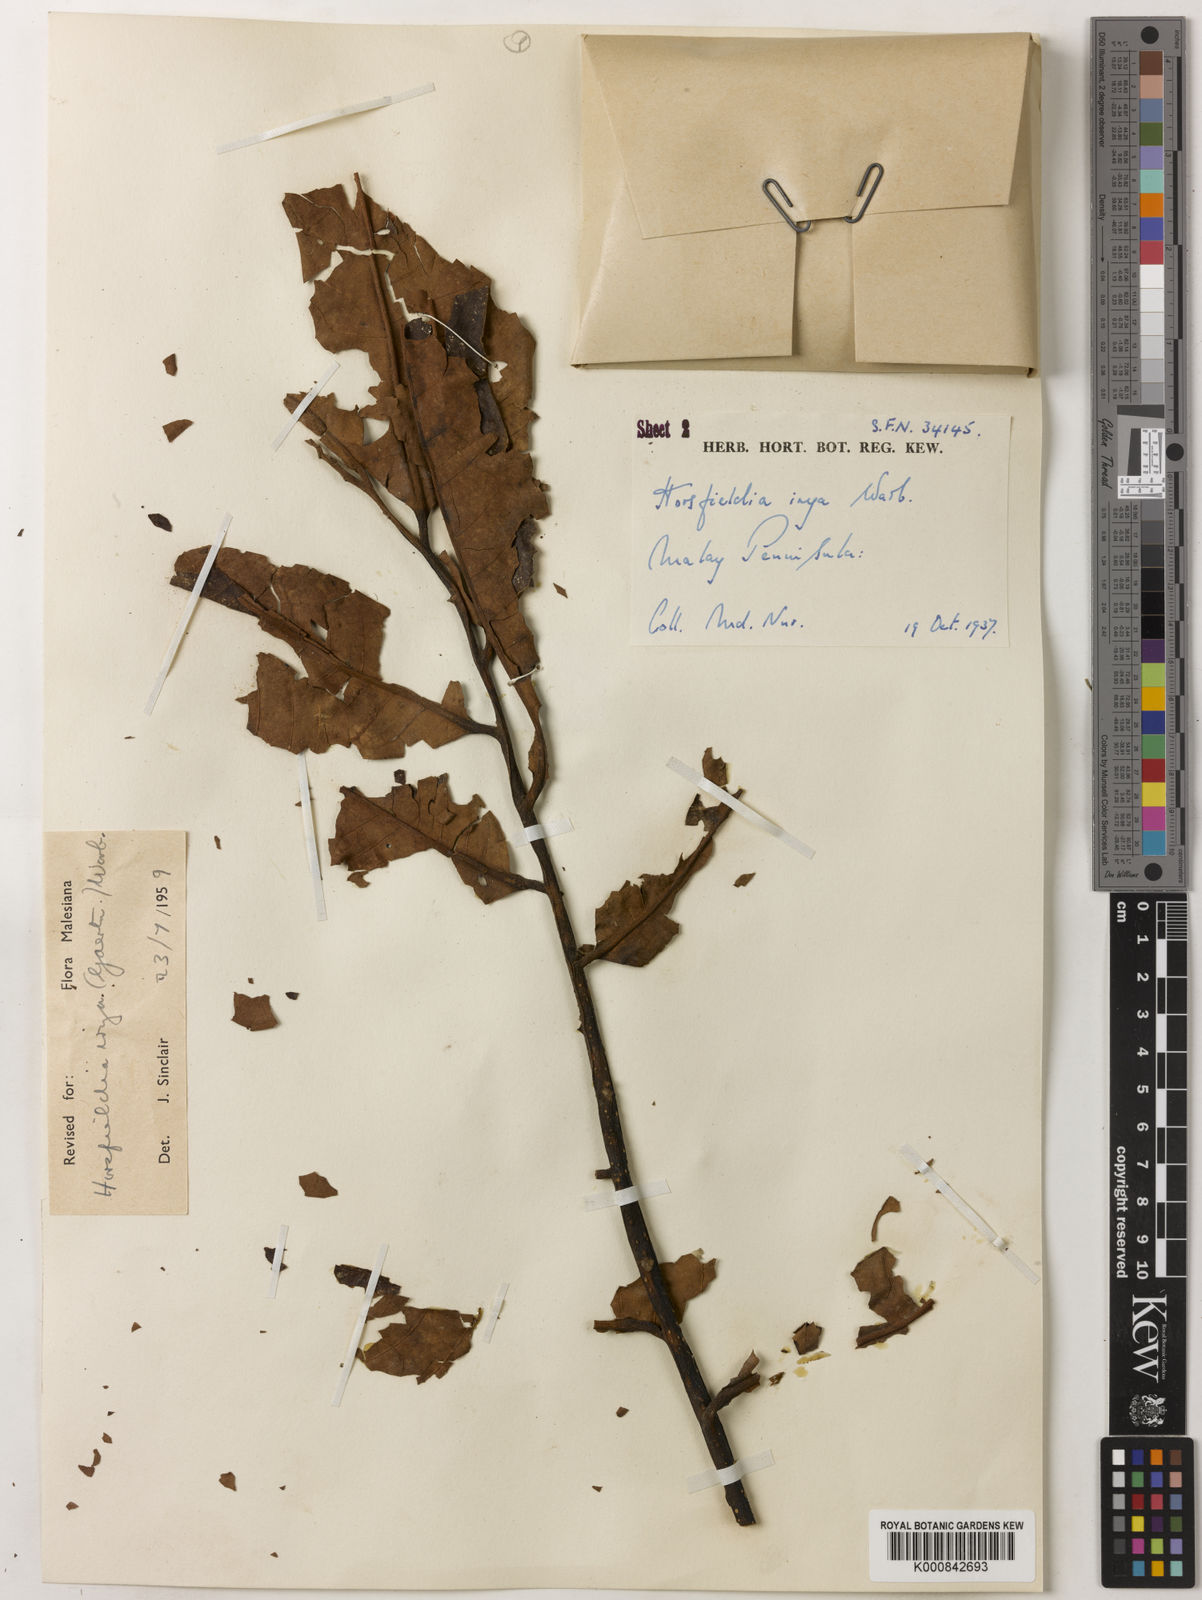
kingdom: Plantae
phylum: Tracheophyta
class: Magnoliopsida
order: Magnoliales
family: Myristicaceae
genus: Horsfieldia
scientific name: Horsfieldia irya
